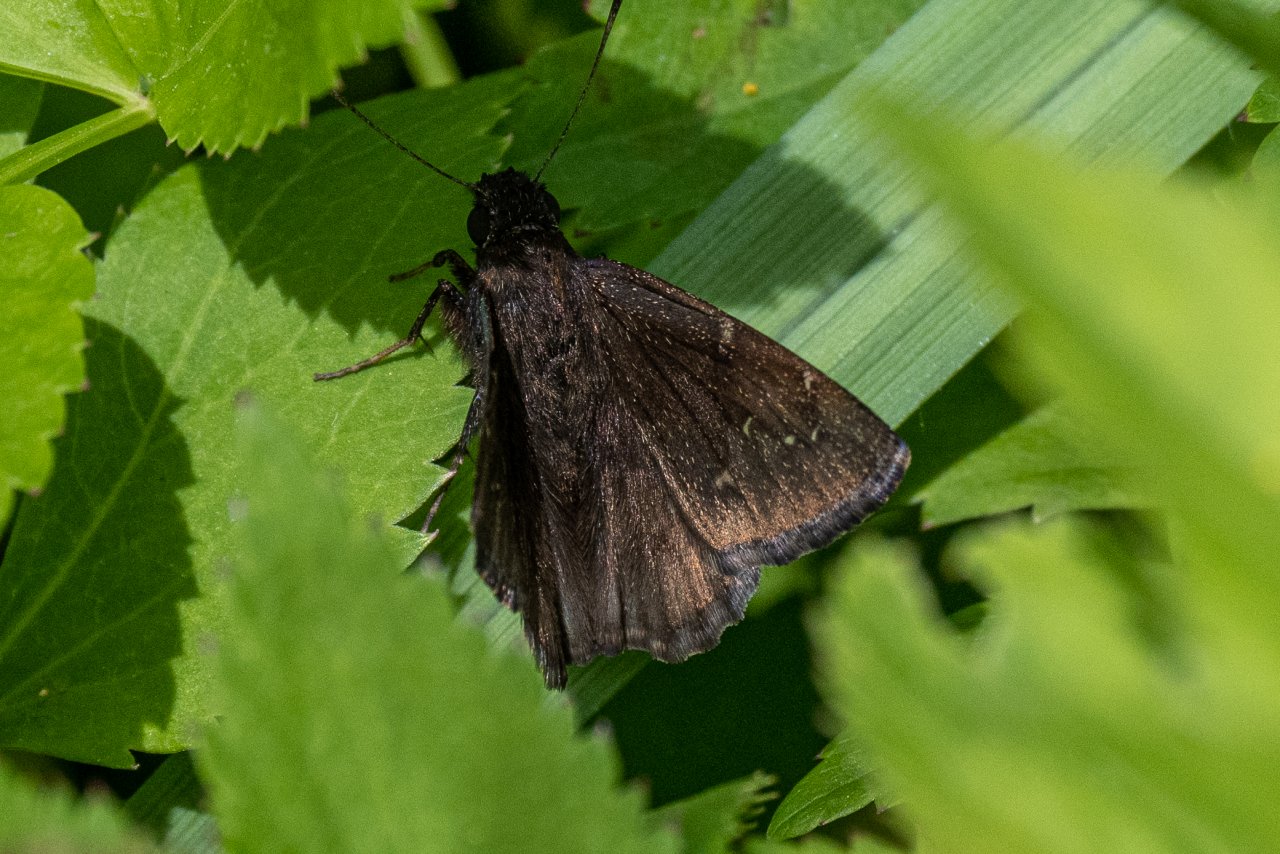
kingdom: Animalia
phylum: Arthropoda
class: Insecta
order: Lepidoptera
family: Hesperiidae
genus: Autochton
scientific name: Autochton
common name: Northern Cloudywing
